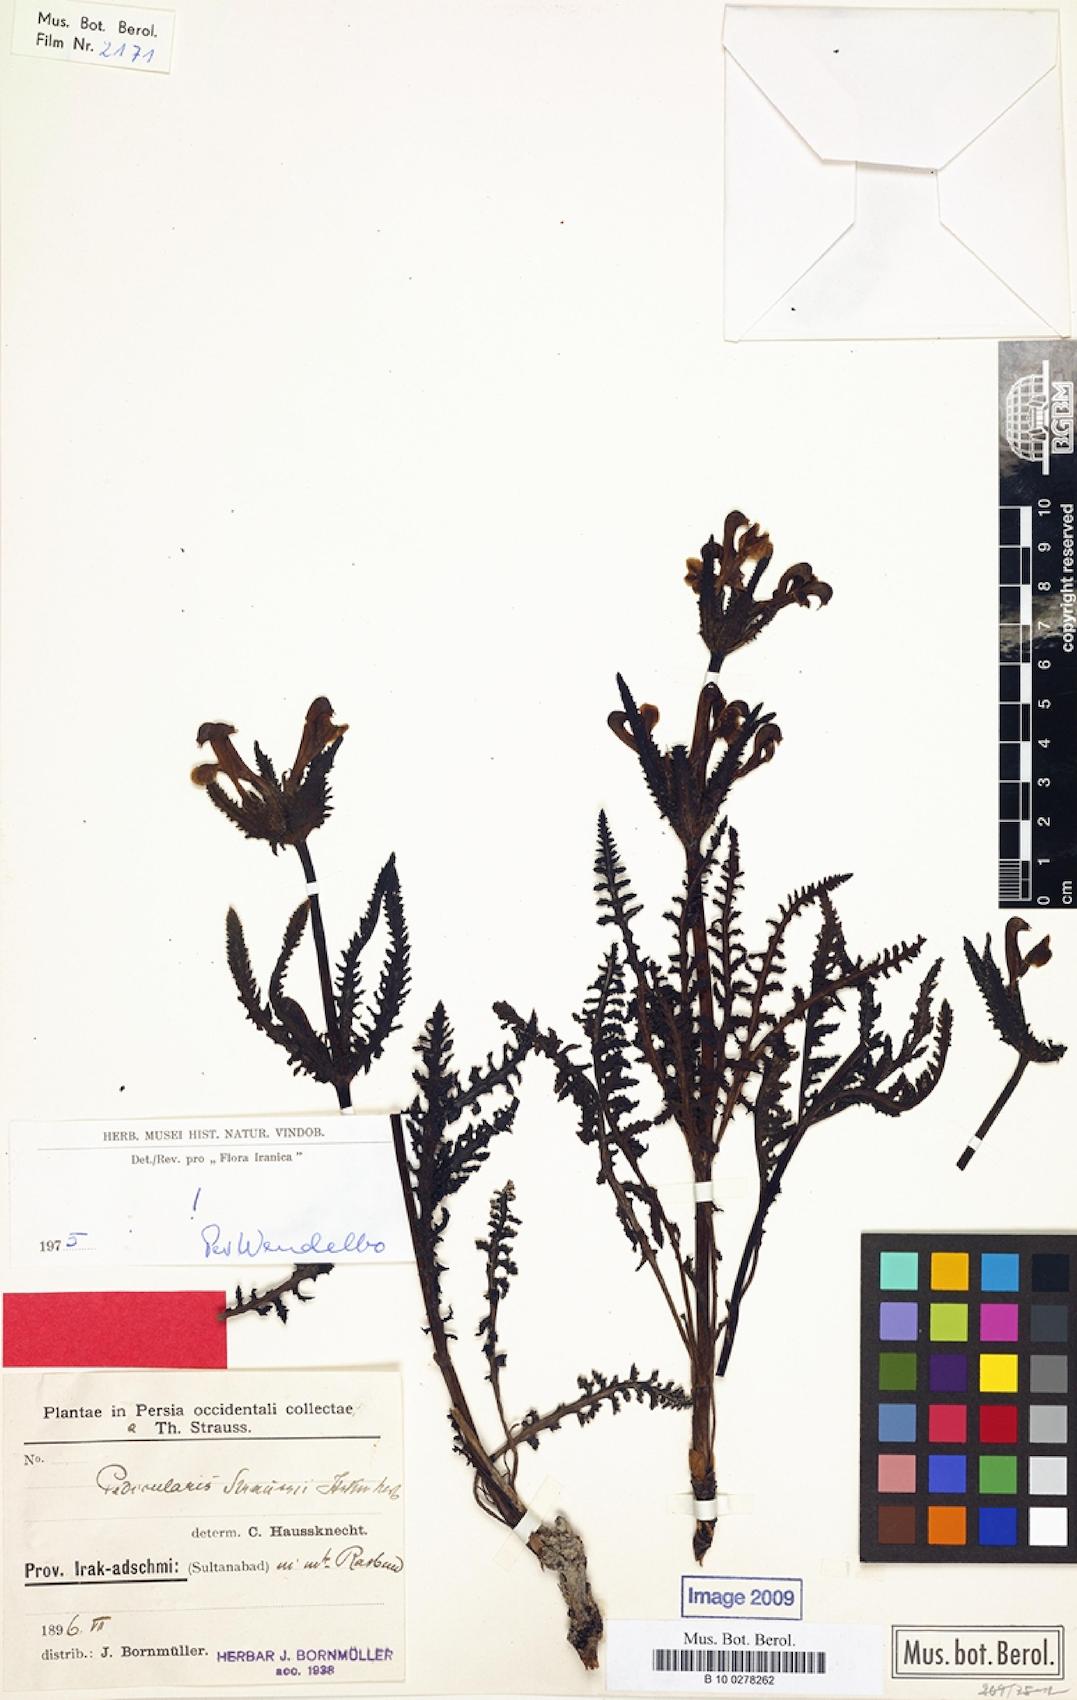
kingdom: Plantae
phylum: Tracheophyta
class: Magnoliopsida
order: Lamiales
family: Orobanchaceae
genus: Pedicularis
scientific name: Pedicularis straussii
